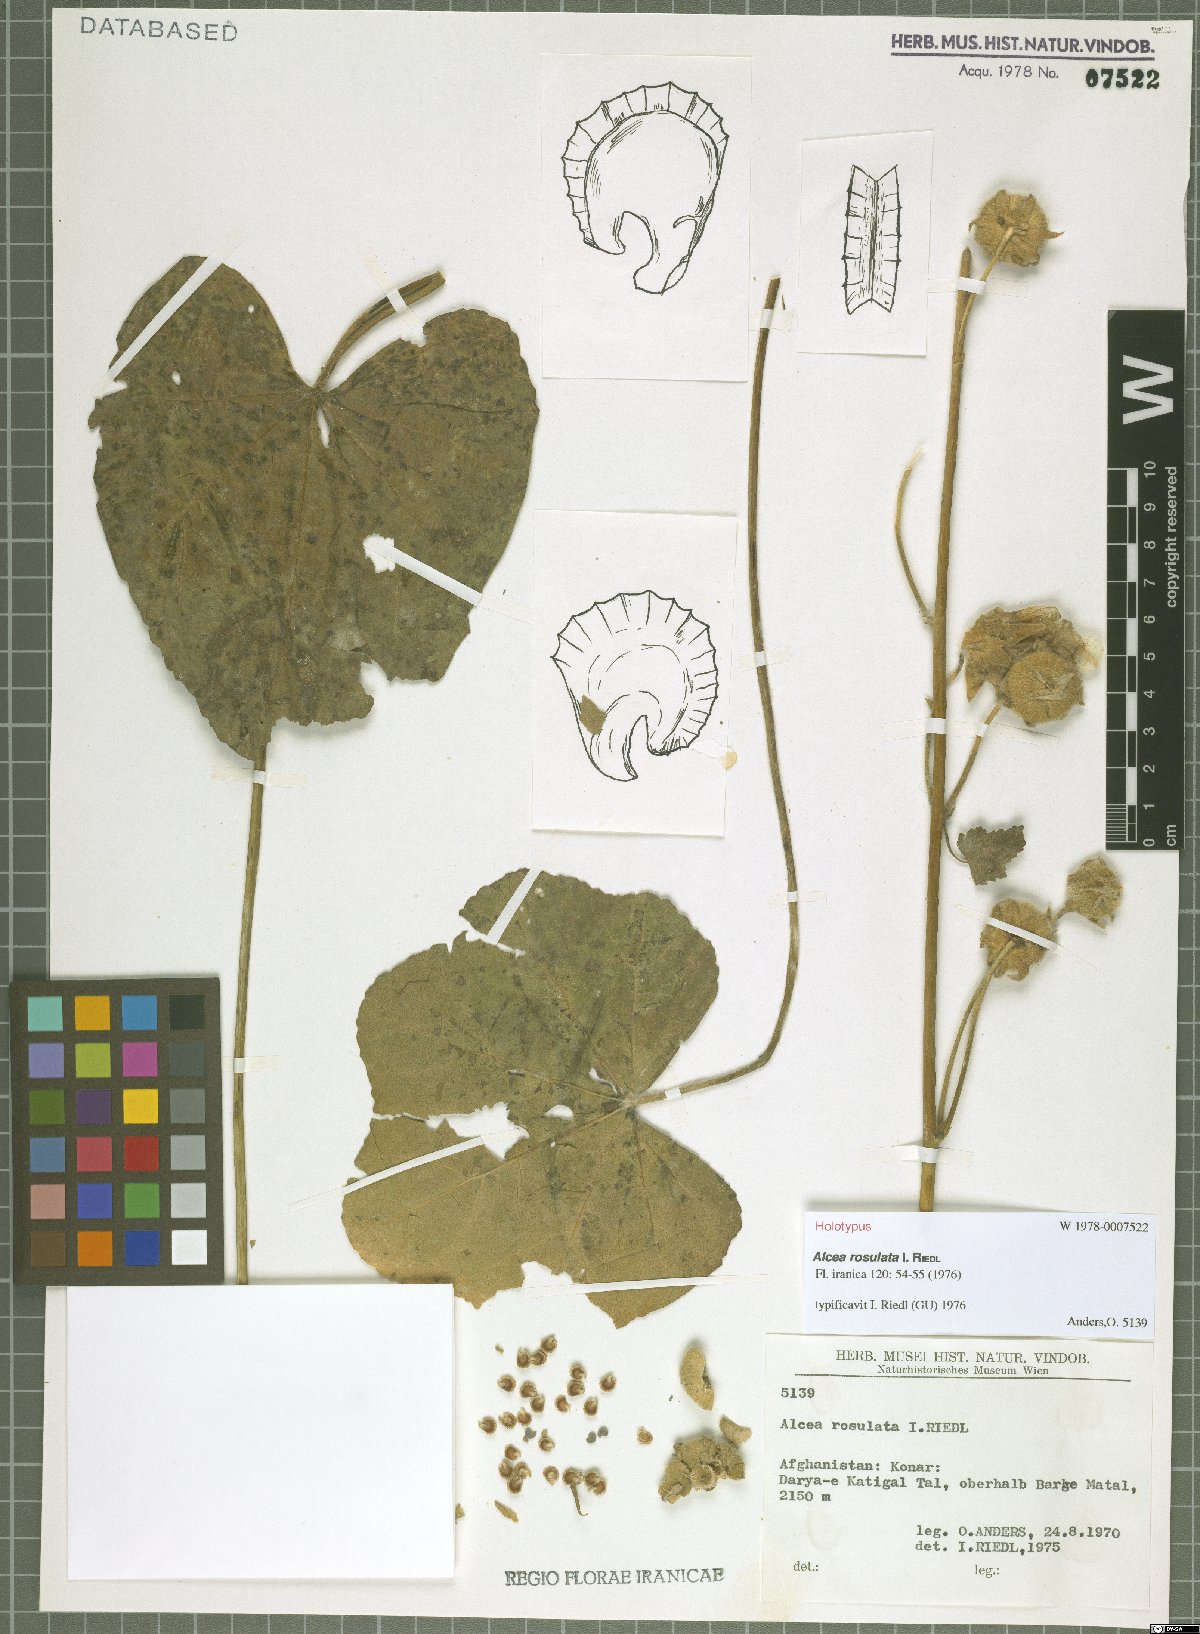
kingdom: Plantae
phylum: Tracheophyta
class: Magnoliopsida
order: Malvales
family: Malvaceae
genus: Alcea
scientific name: Alcea rosulata
